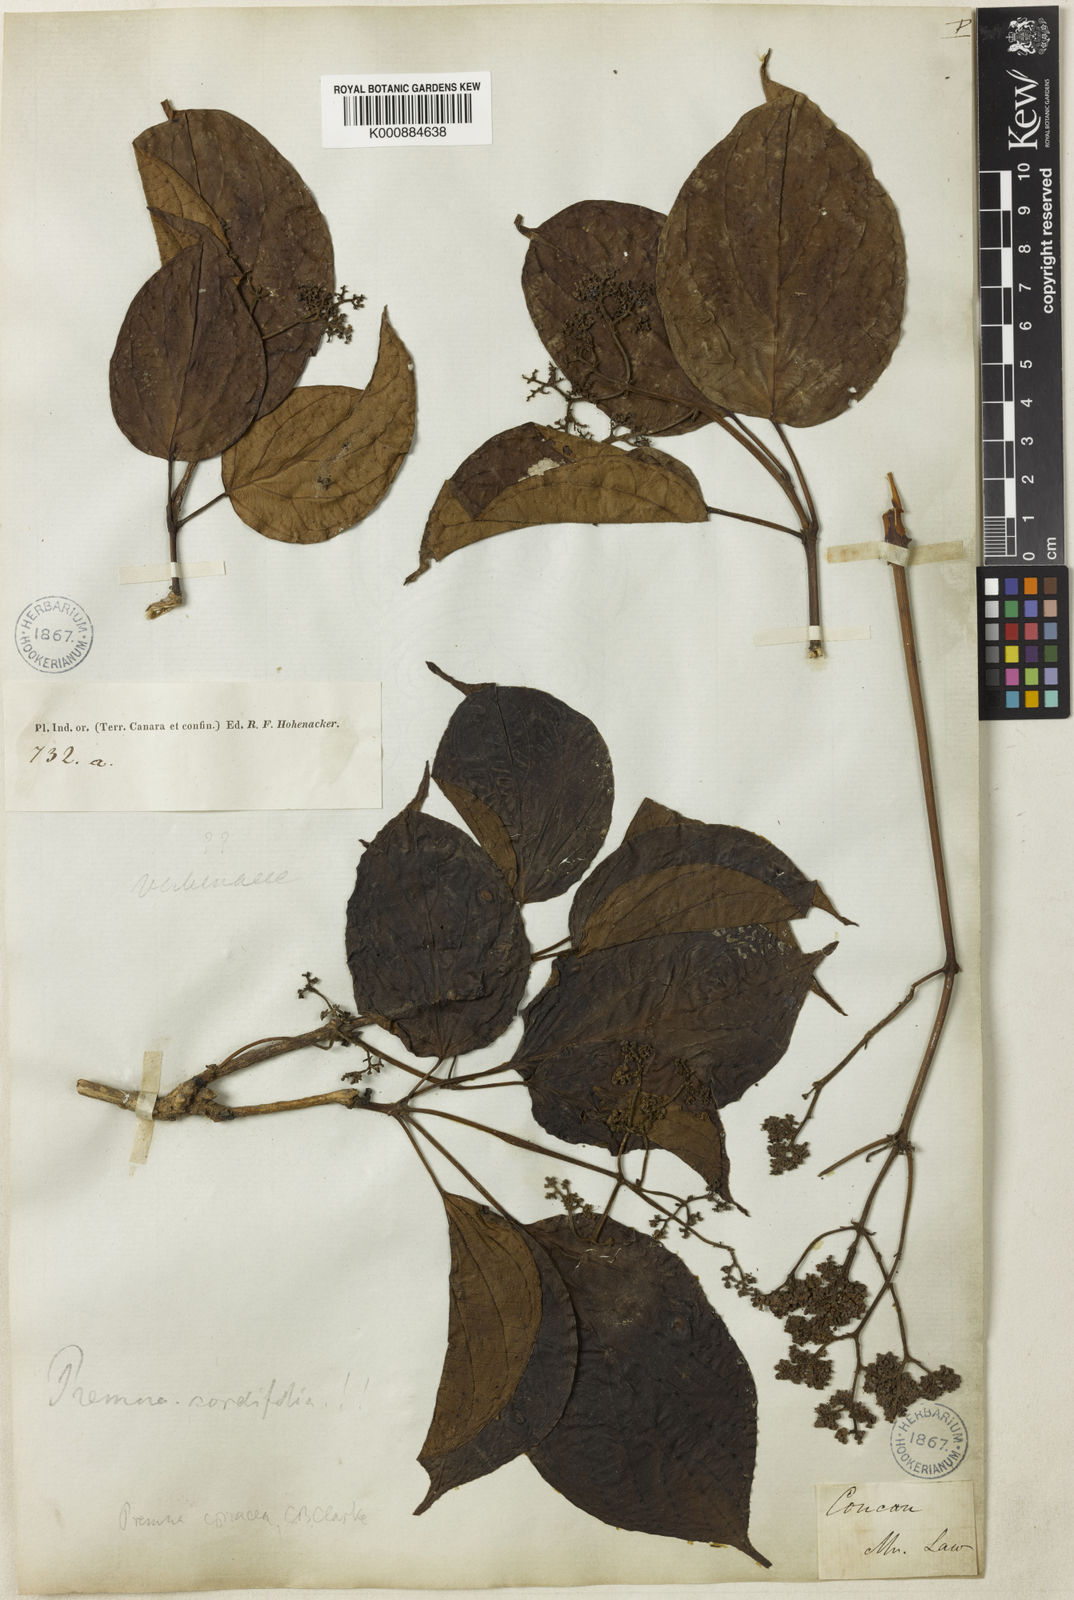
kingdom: Plantae
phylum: Tracheophyta
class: Magnoliopsida
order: Lamiales
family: Lamiaceae
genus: Premna
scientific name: Premna coriacea
